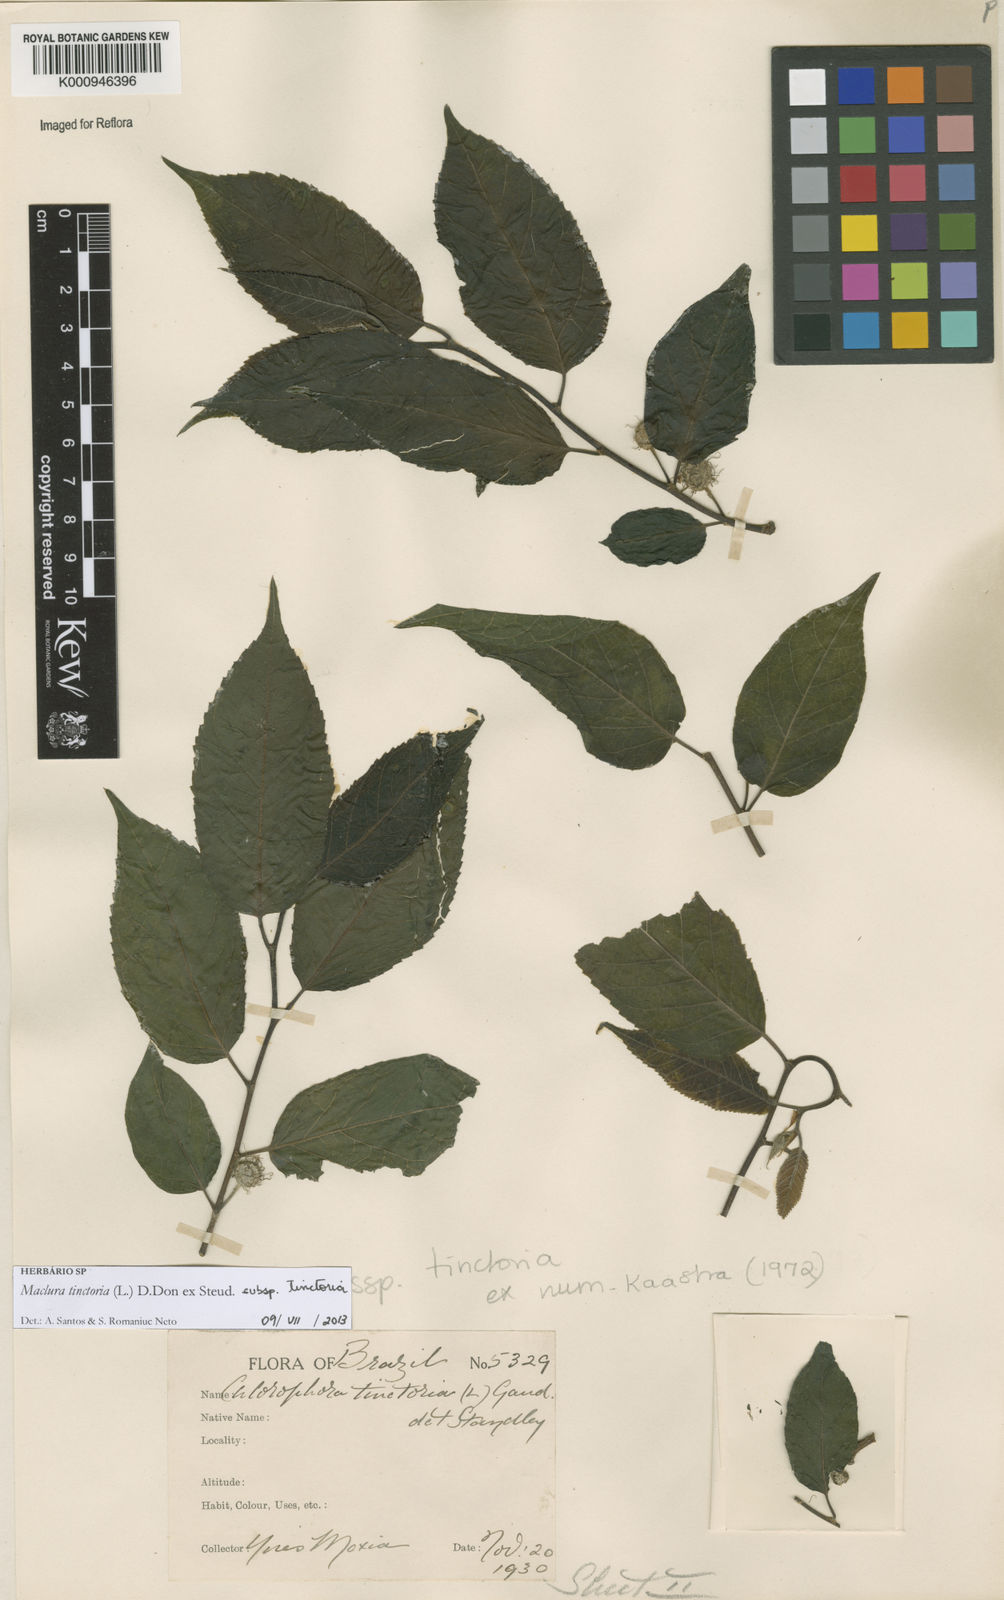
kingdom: Plantae
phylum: Tracheophyta
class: Magnoliopsida
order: Rosales
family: Moraceae
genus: Maclura
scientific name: Maclura tinctoria
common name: Old fustic
